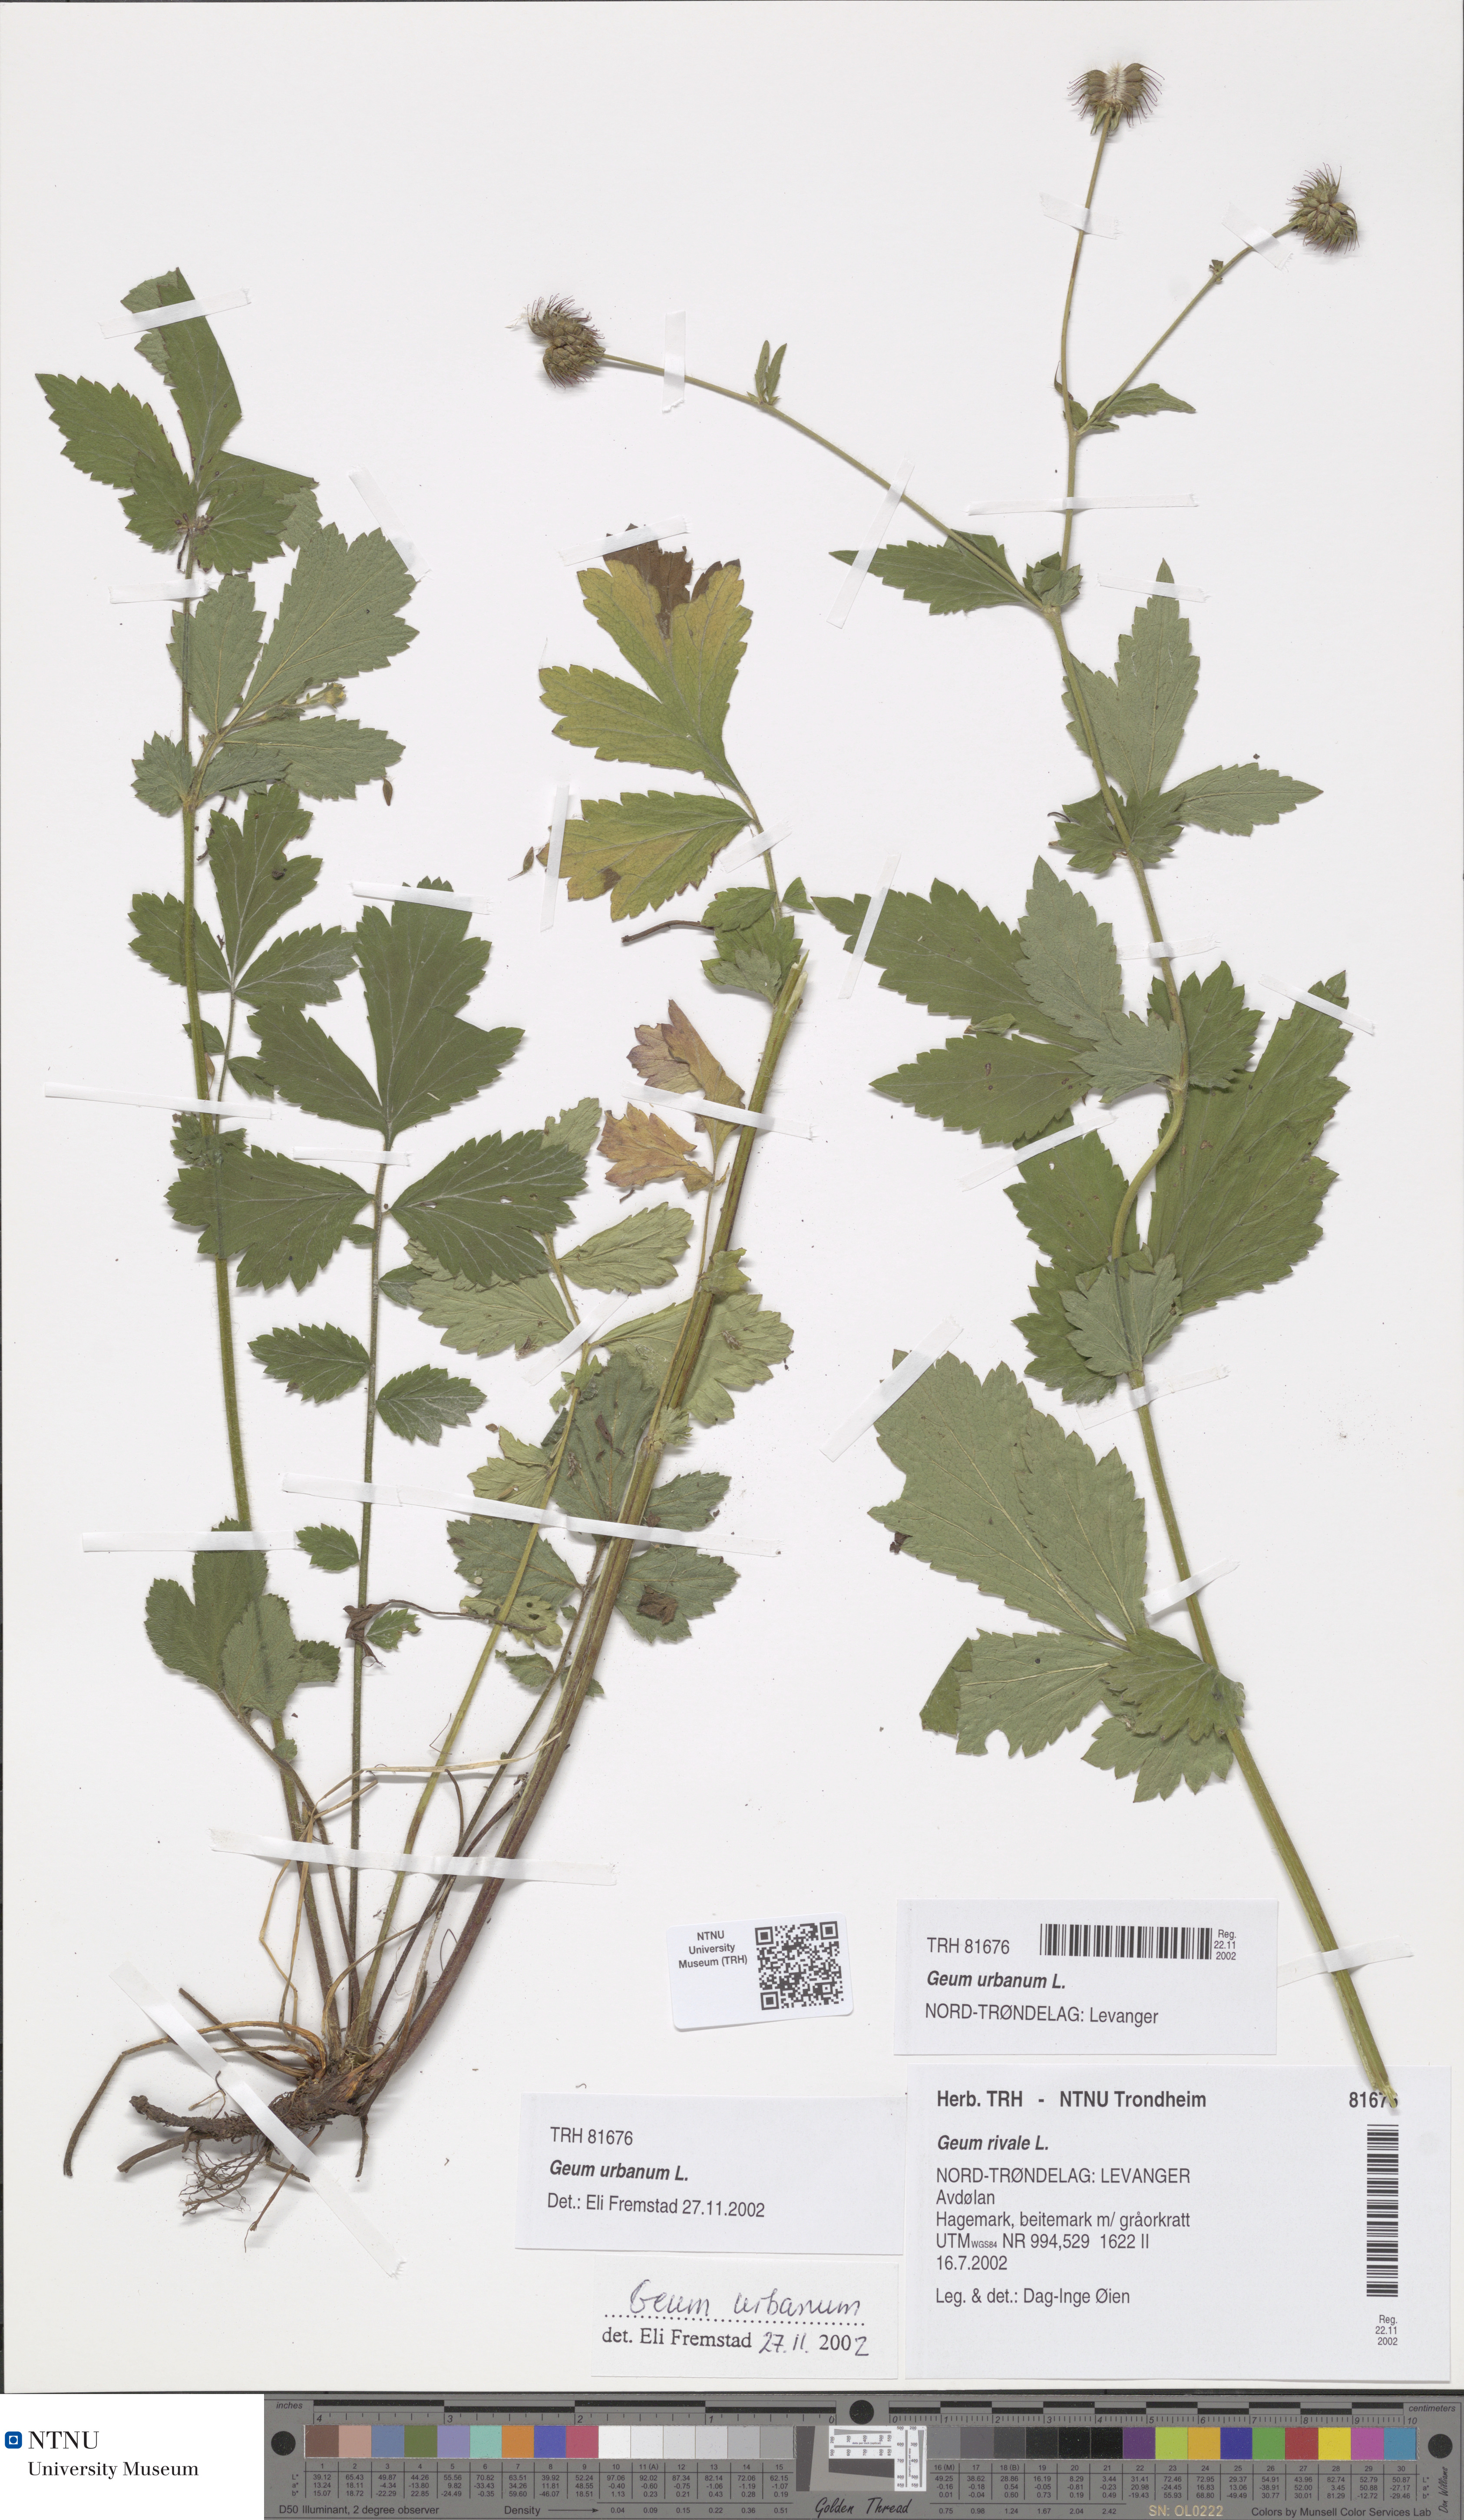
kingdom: Plantae
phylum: Tracheophyta
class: Magnoliopsida
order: Rosales
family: Rosaceae
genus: Geum
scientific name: Geum rivale
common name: Water avens
